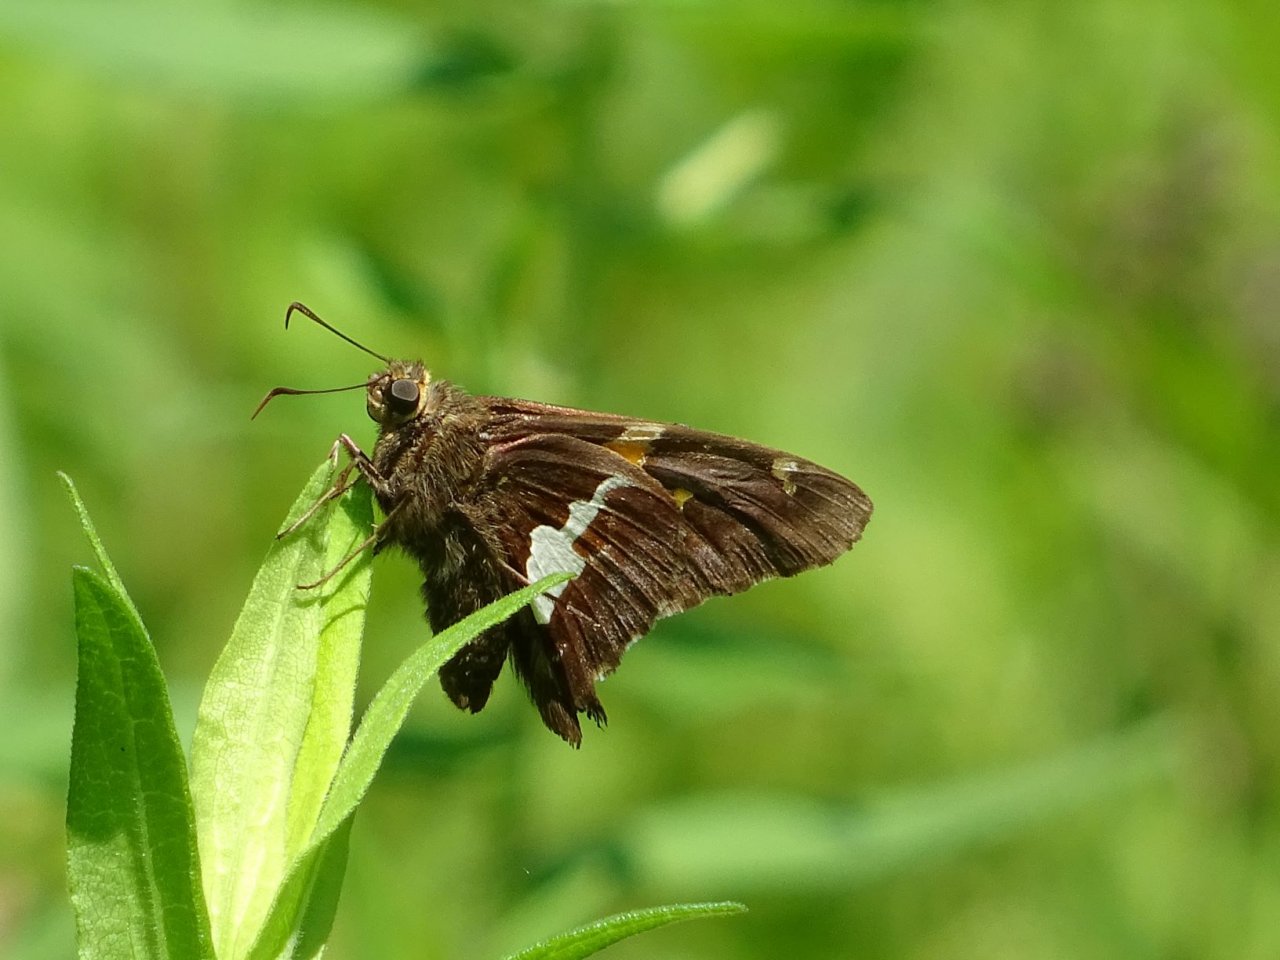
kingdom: Animalia
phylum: Arthropoda
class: Insecta
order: Lepidoptera
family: Hesperiidae
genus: Epargyreus
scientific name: Epargyreus clarus
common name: Silver-spotted Skipper
